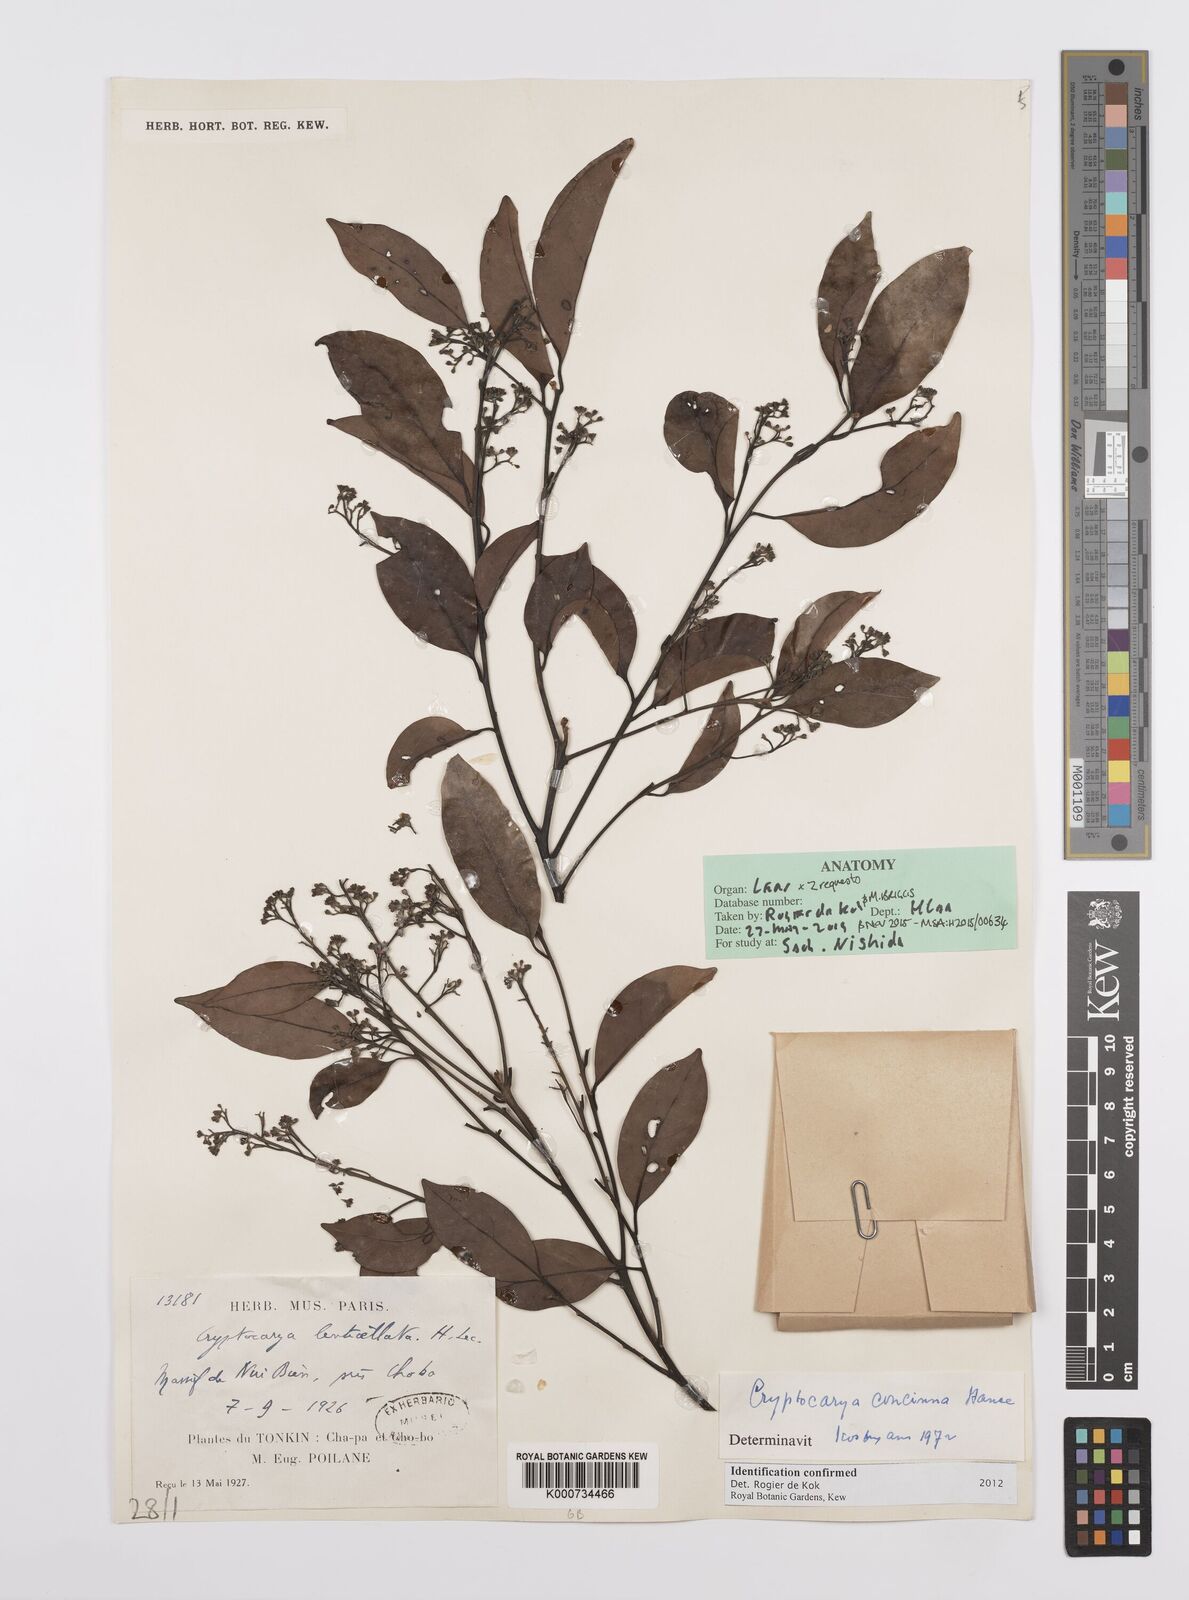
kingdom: Plantae
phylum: Tracheophyta
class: Magnoliopsida
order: Laurales
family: Lauraceae
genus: Cryptocarya
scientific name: Cryptocarya concinna
